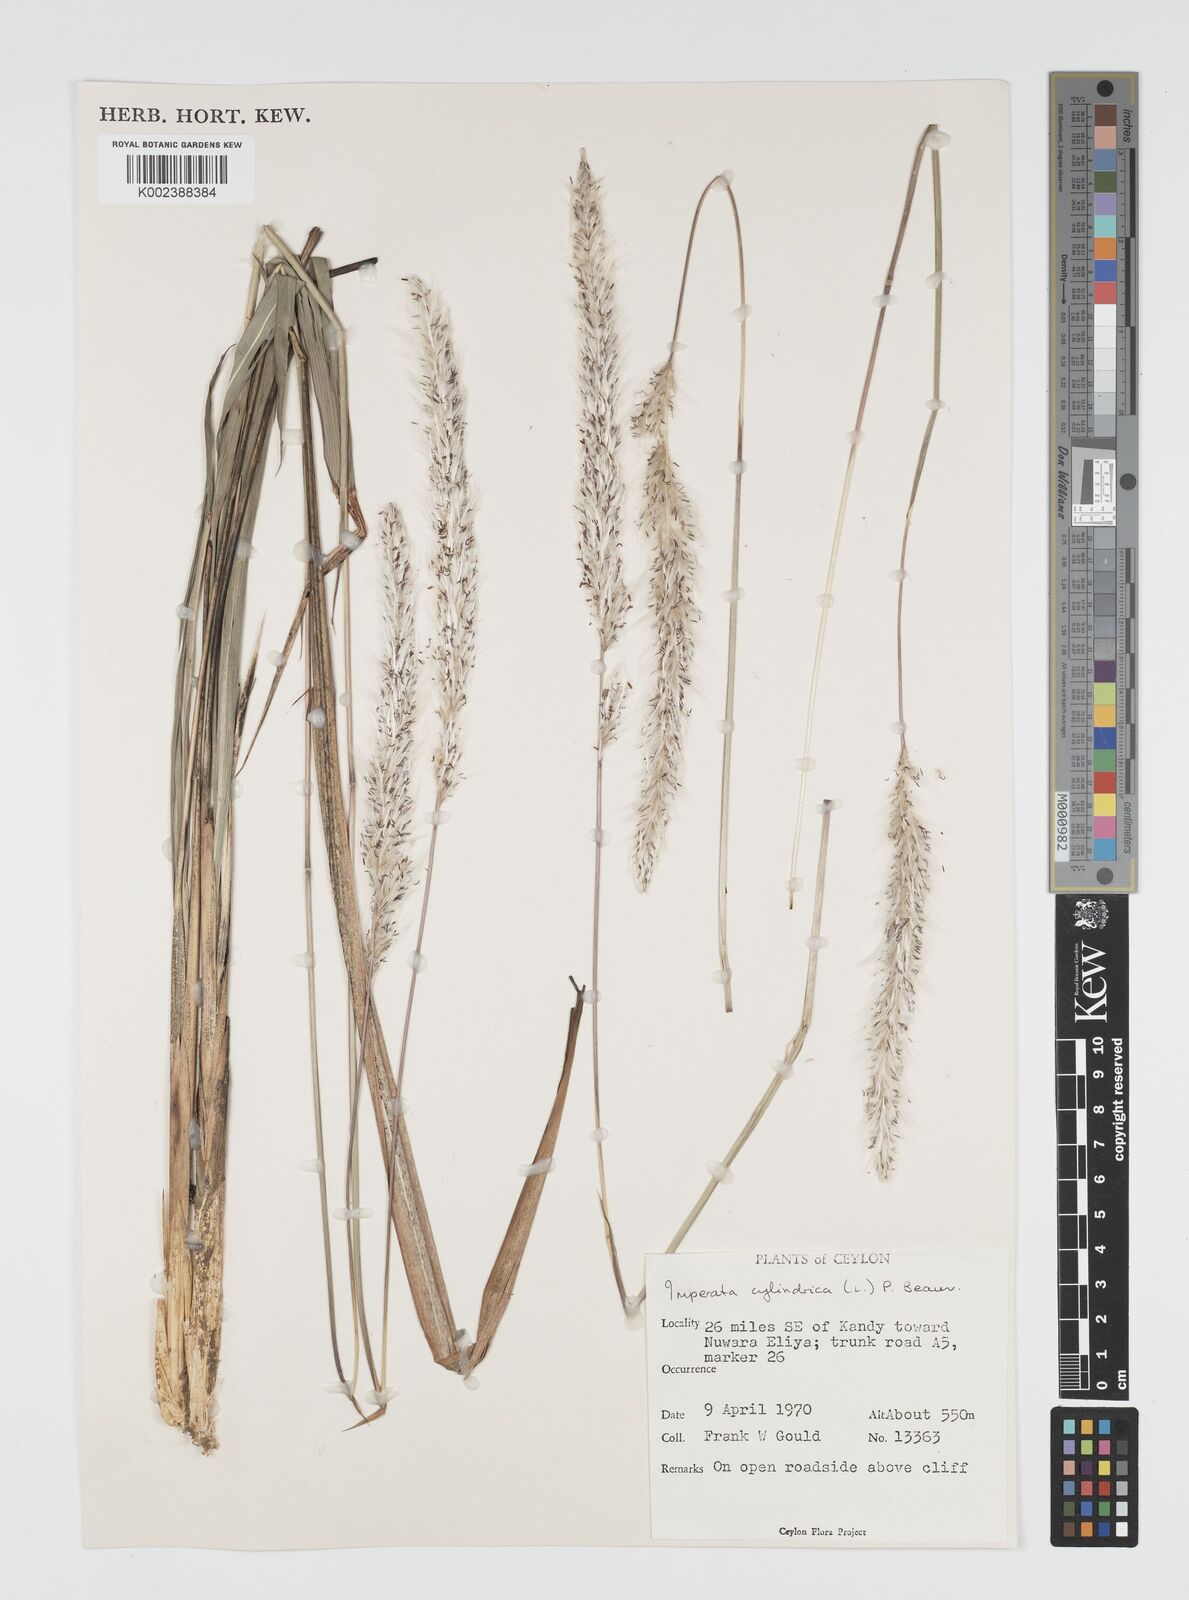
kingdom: Plantae
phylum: Tracheophyta
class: Liliopsida
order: Poales
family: Poaceae
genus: Imperata
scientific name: Imperata cylindrica
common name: Cogongrass
